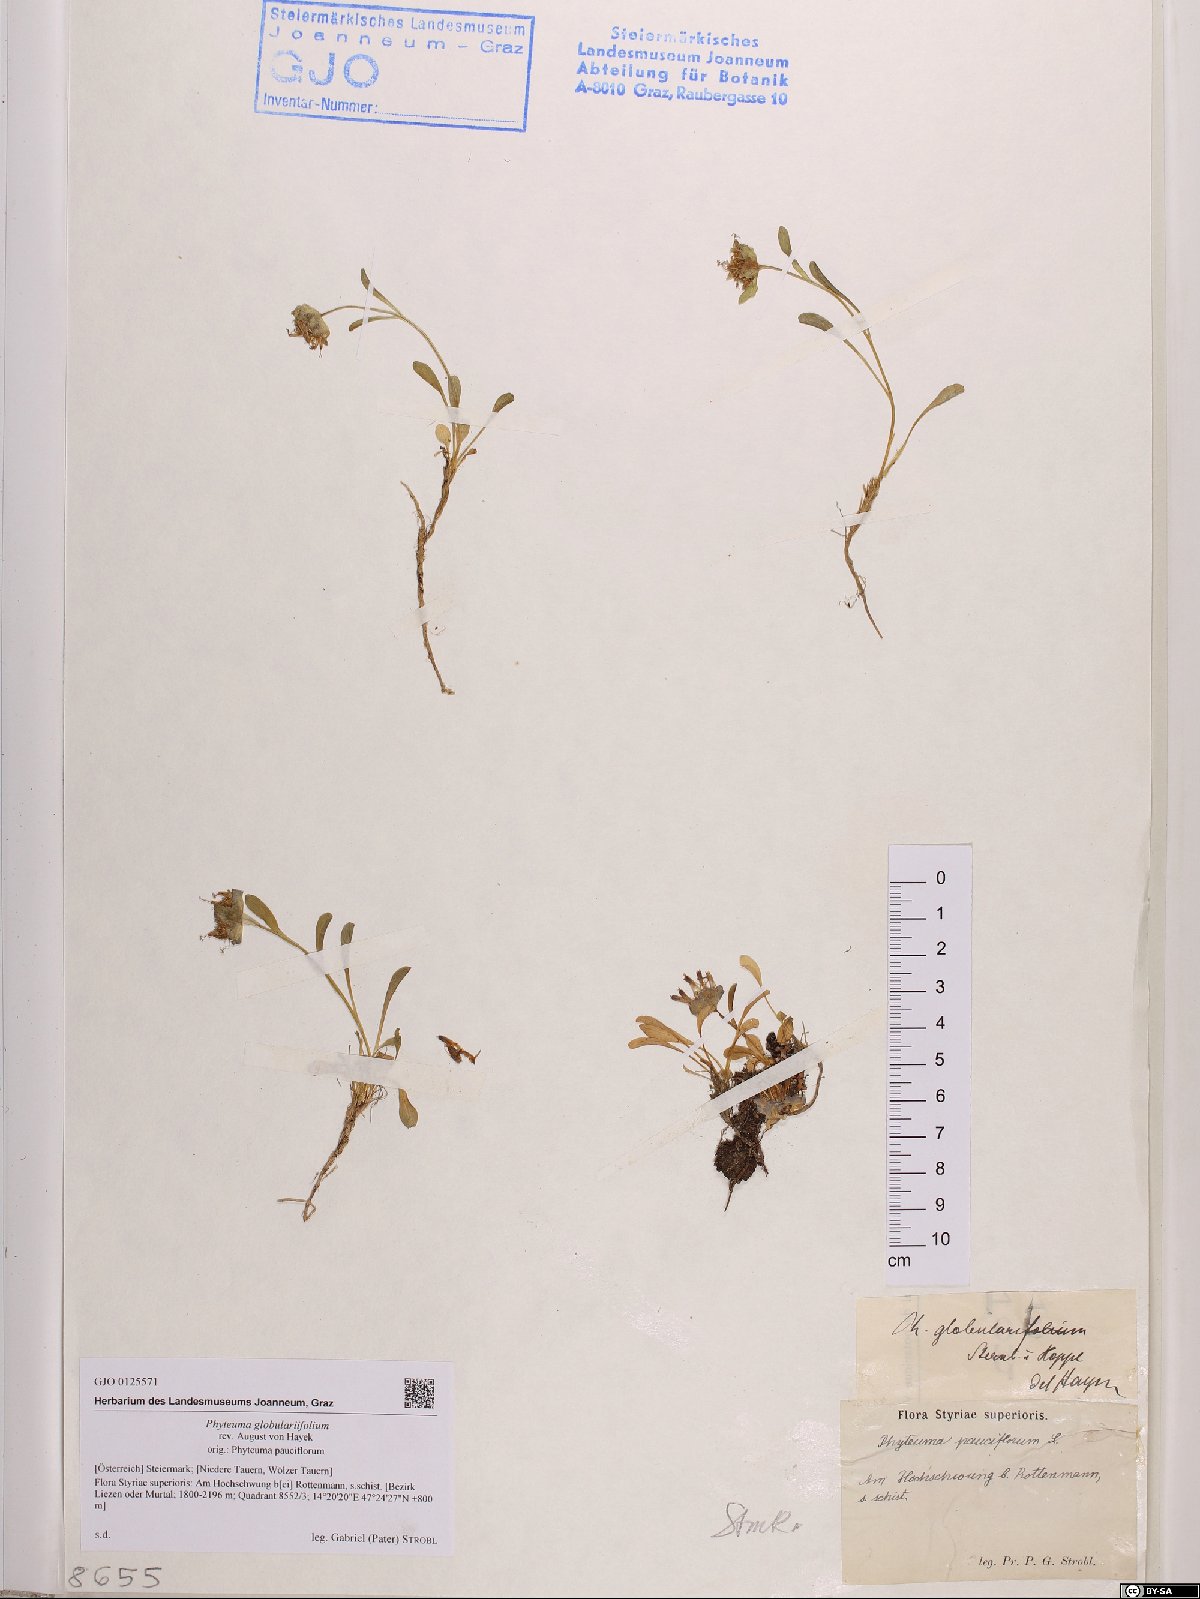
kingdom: Plantae
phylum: Tracheophyta
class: Magnoliopsida
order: Asterales
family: Campanulaceae
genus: Phyteuma
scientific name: Phyteuma globulariifolium
